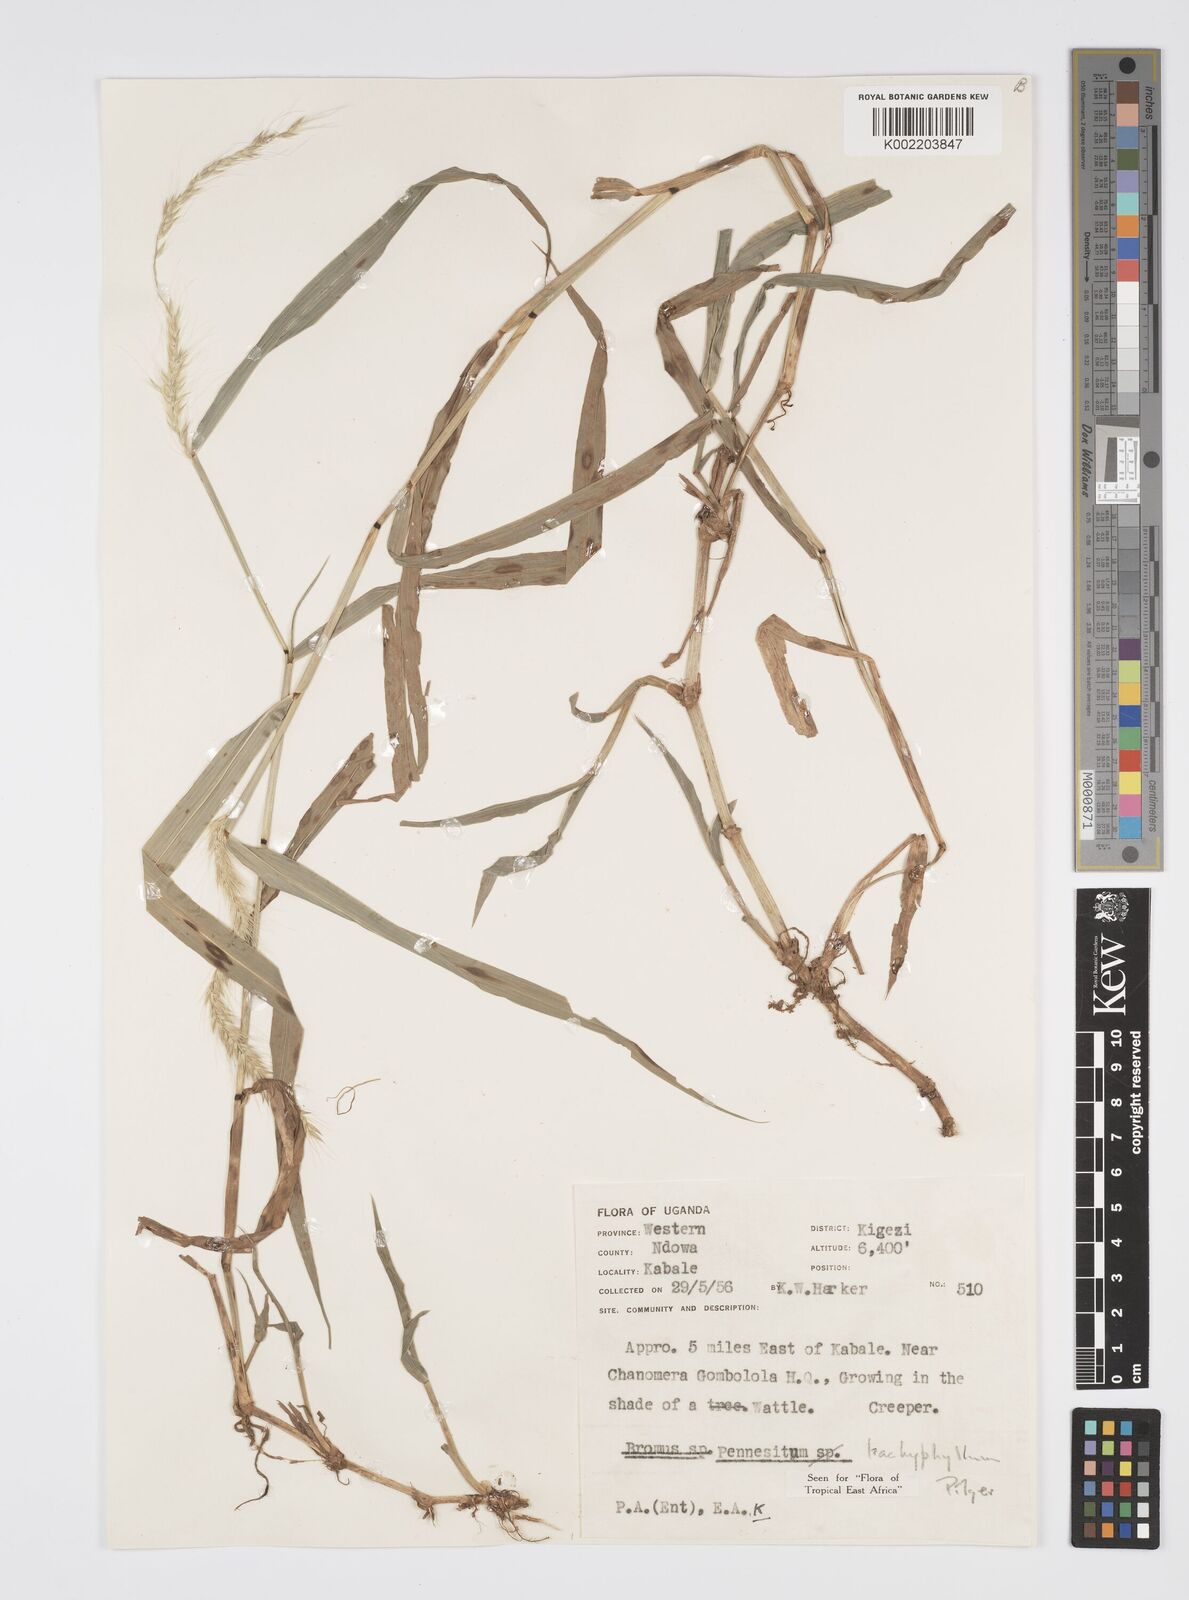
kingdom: Plantae
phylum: Tracheophyta
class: Liliopsida
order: Poales
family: Poaceae
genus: Cenchrus
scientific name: Cenchrus trachyphyllus
